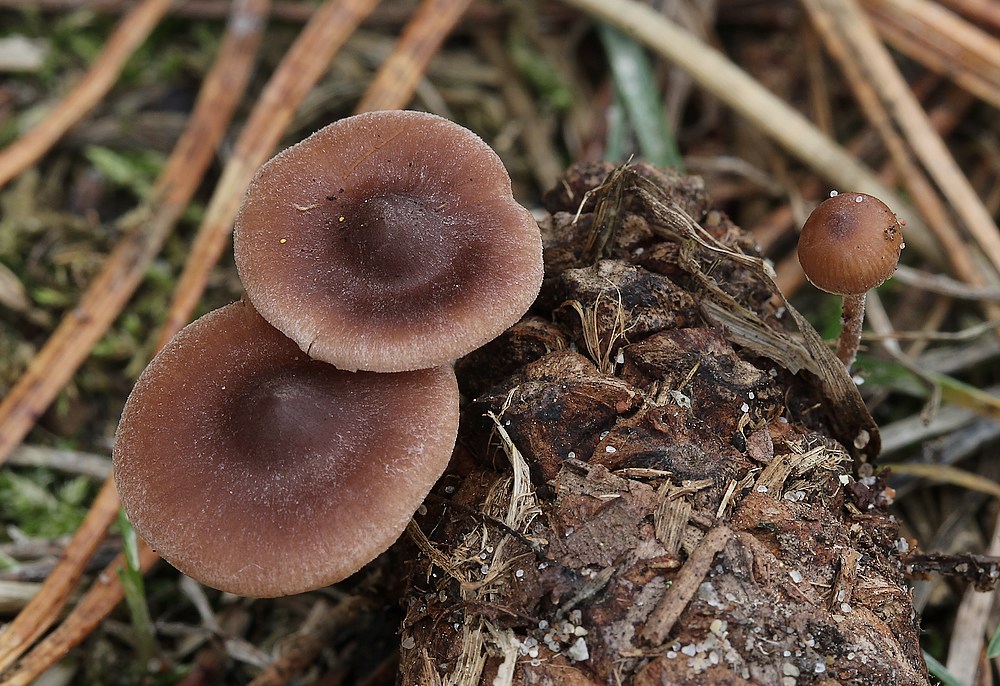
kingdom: Fungi
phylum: Basidiomycota
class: Agaricomycetes
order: Agaricales
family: Marasmiaceae
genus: Baeospora
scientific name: Baeospora myosura
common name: koglebruskhat
